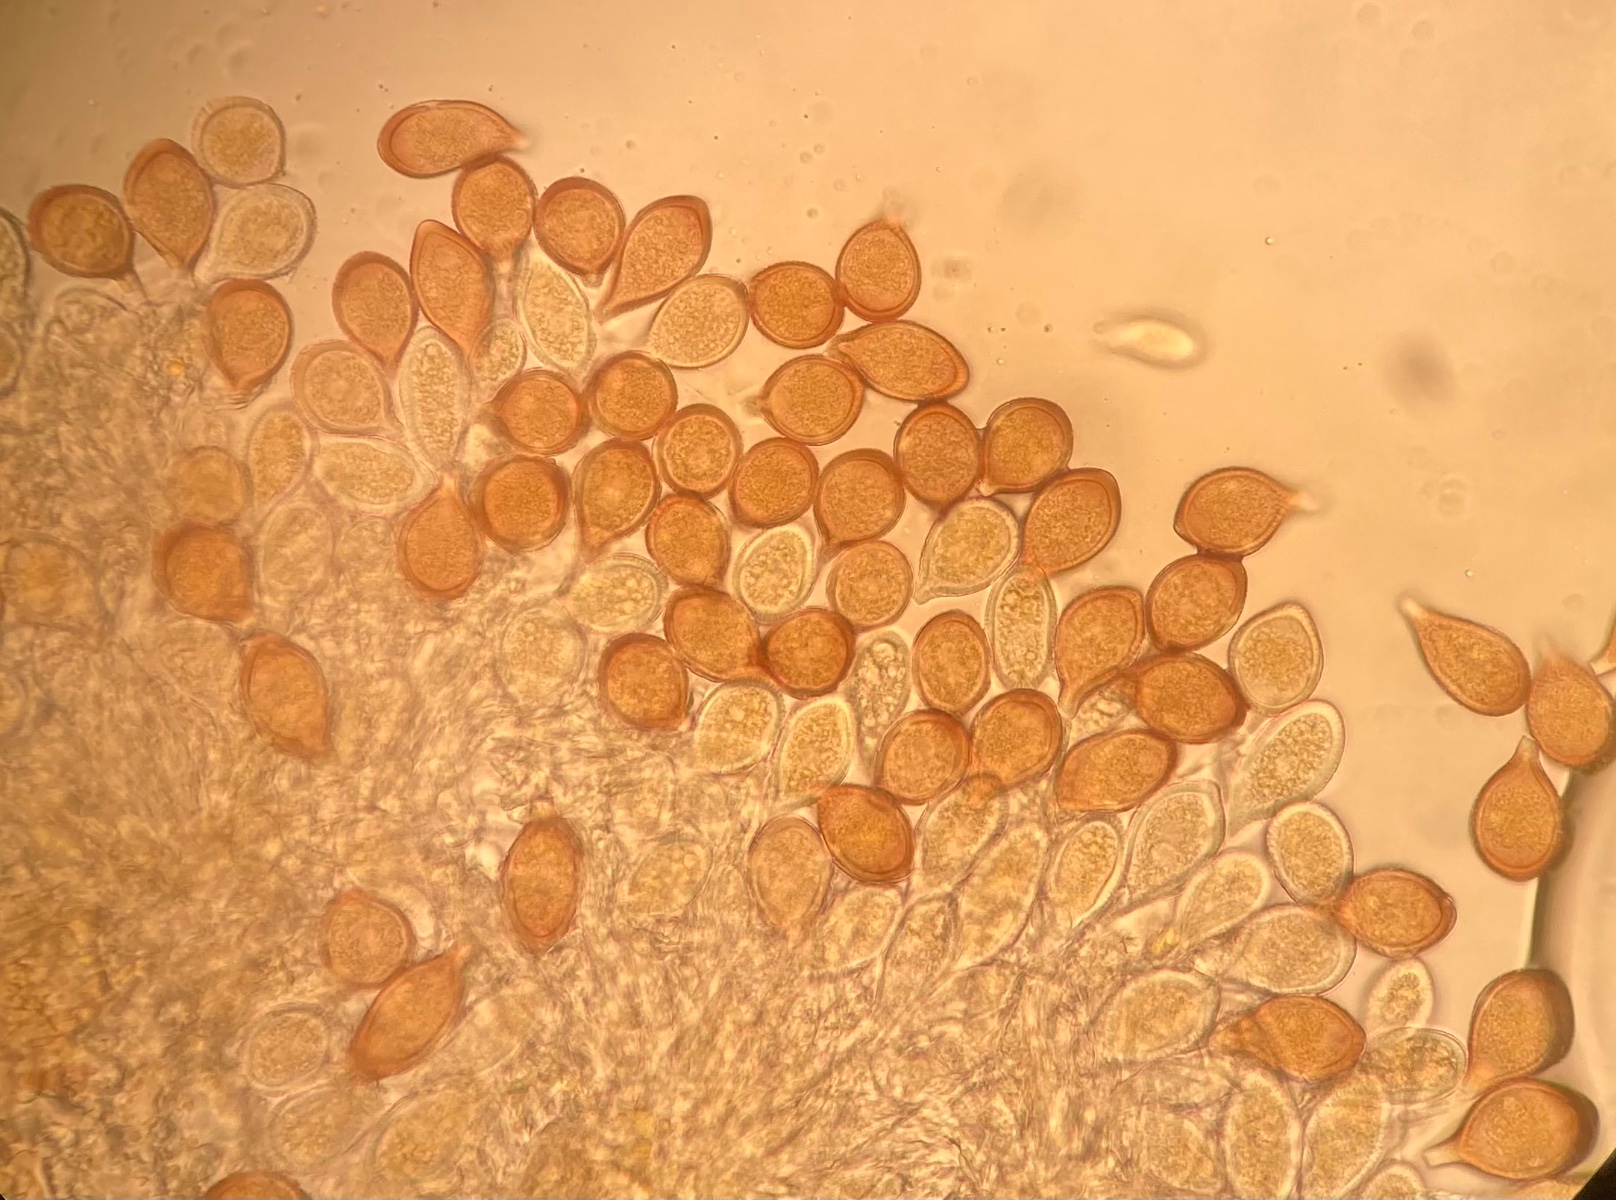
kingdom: Fungi
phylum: Basidiomycota
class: Pucciniomycetes
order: Pucciniales
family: Pucciniaceae
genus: Cumminsiella
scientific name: Cumminsiella mirabilissima
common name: mahonierust
